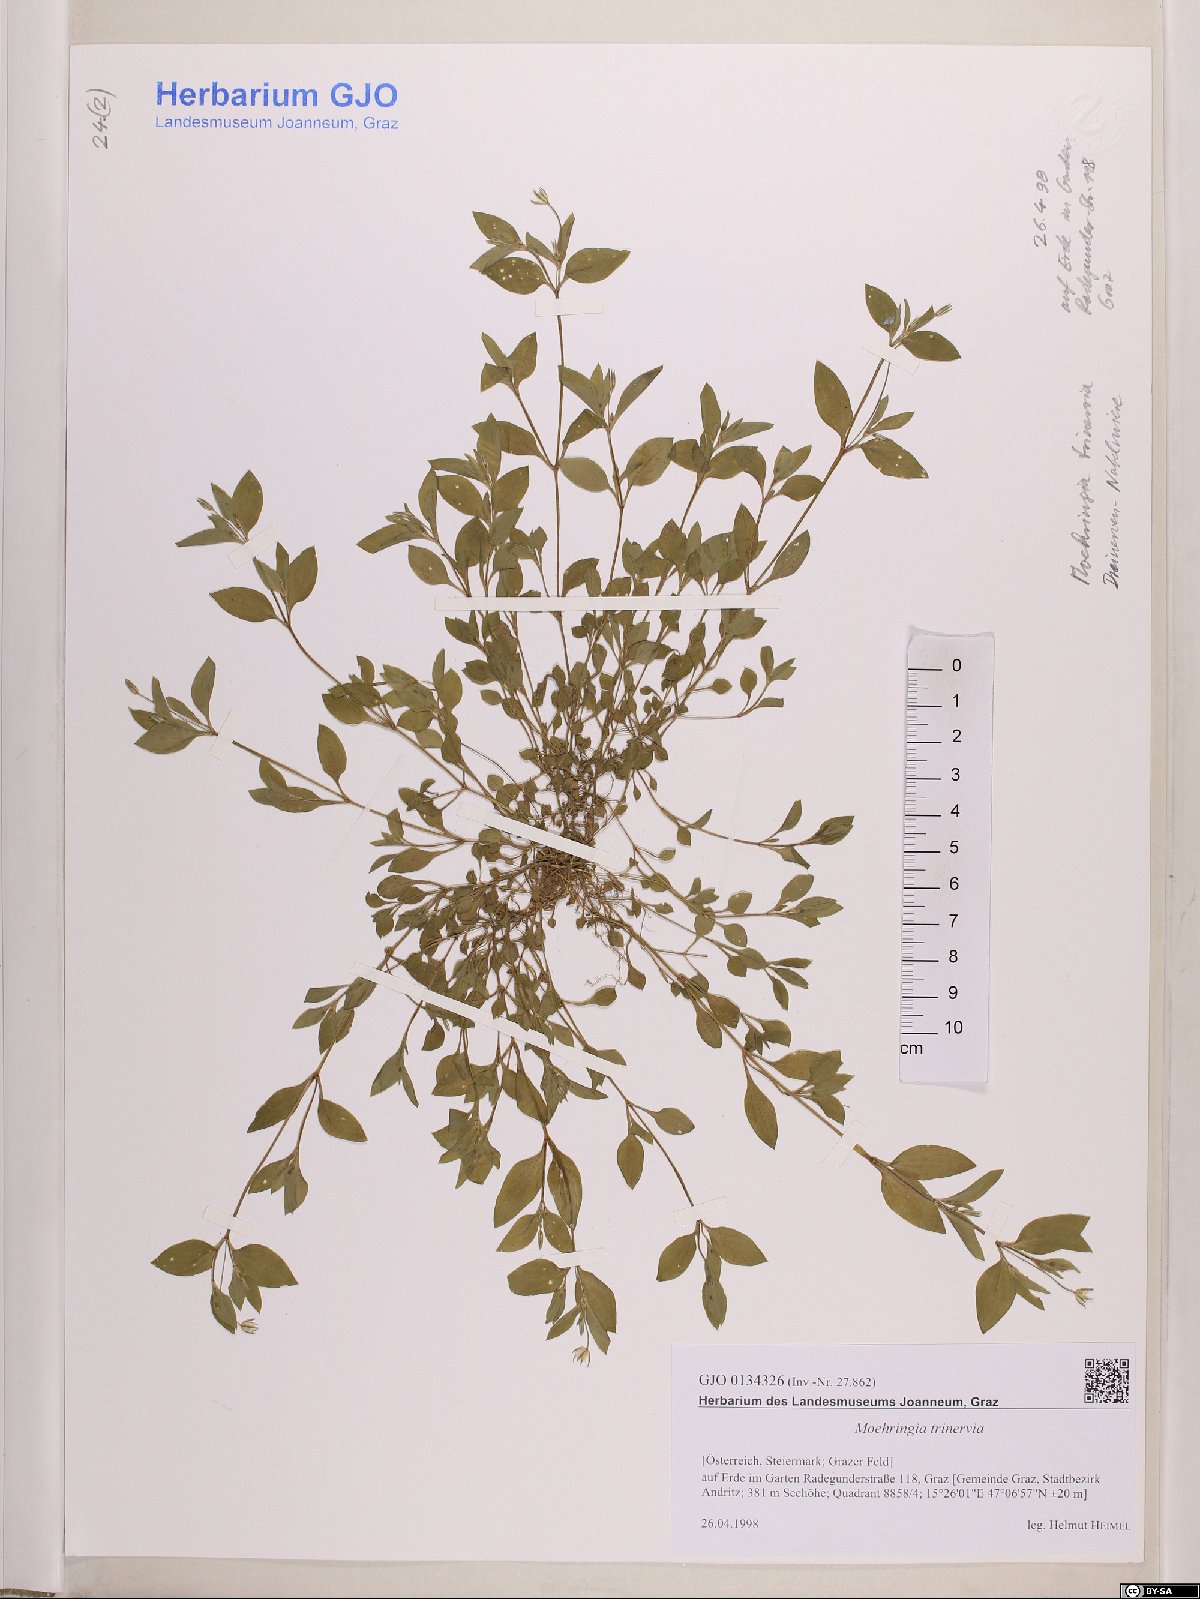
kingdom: Plantae
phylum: Tracheophyta
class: Magnoliopsida
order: Caryophyllales
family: Caryophyllaceae
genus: Moehringia
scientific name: Moehringia trinervia
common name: Three-nerved sandwort
